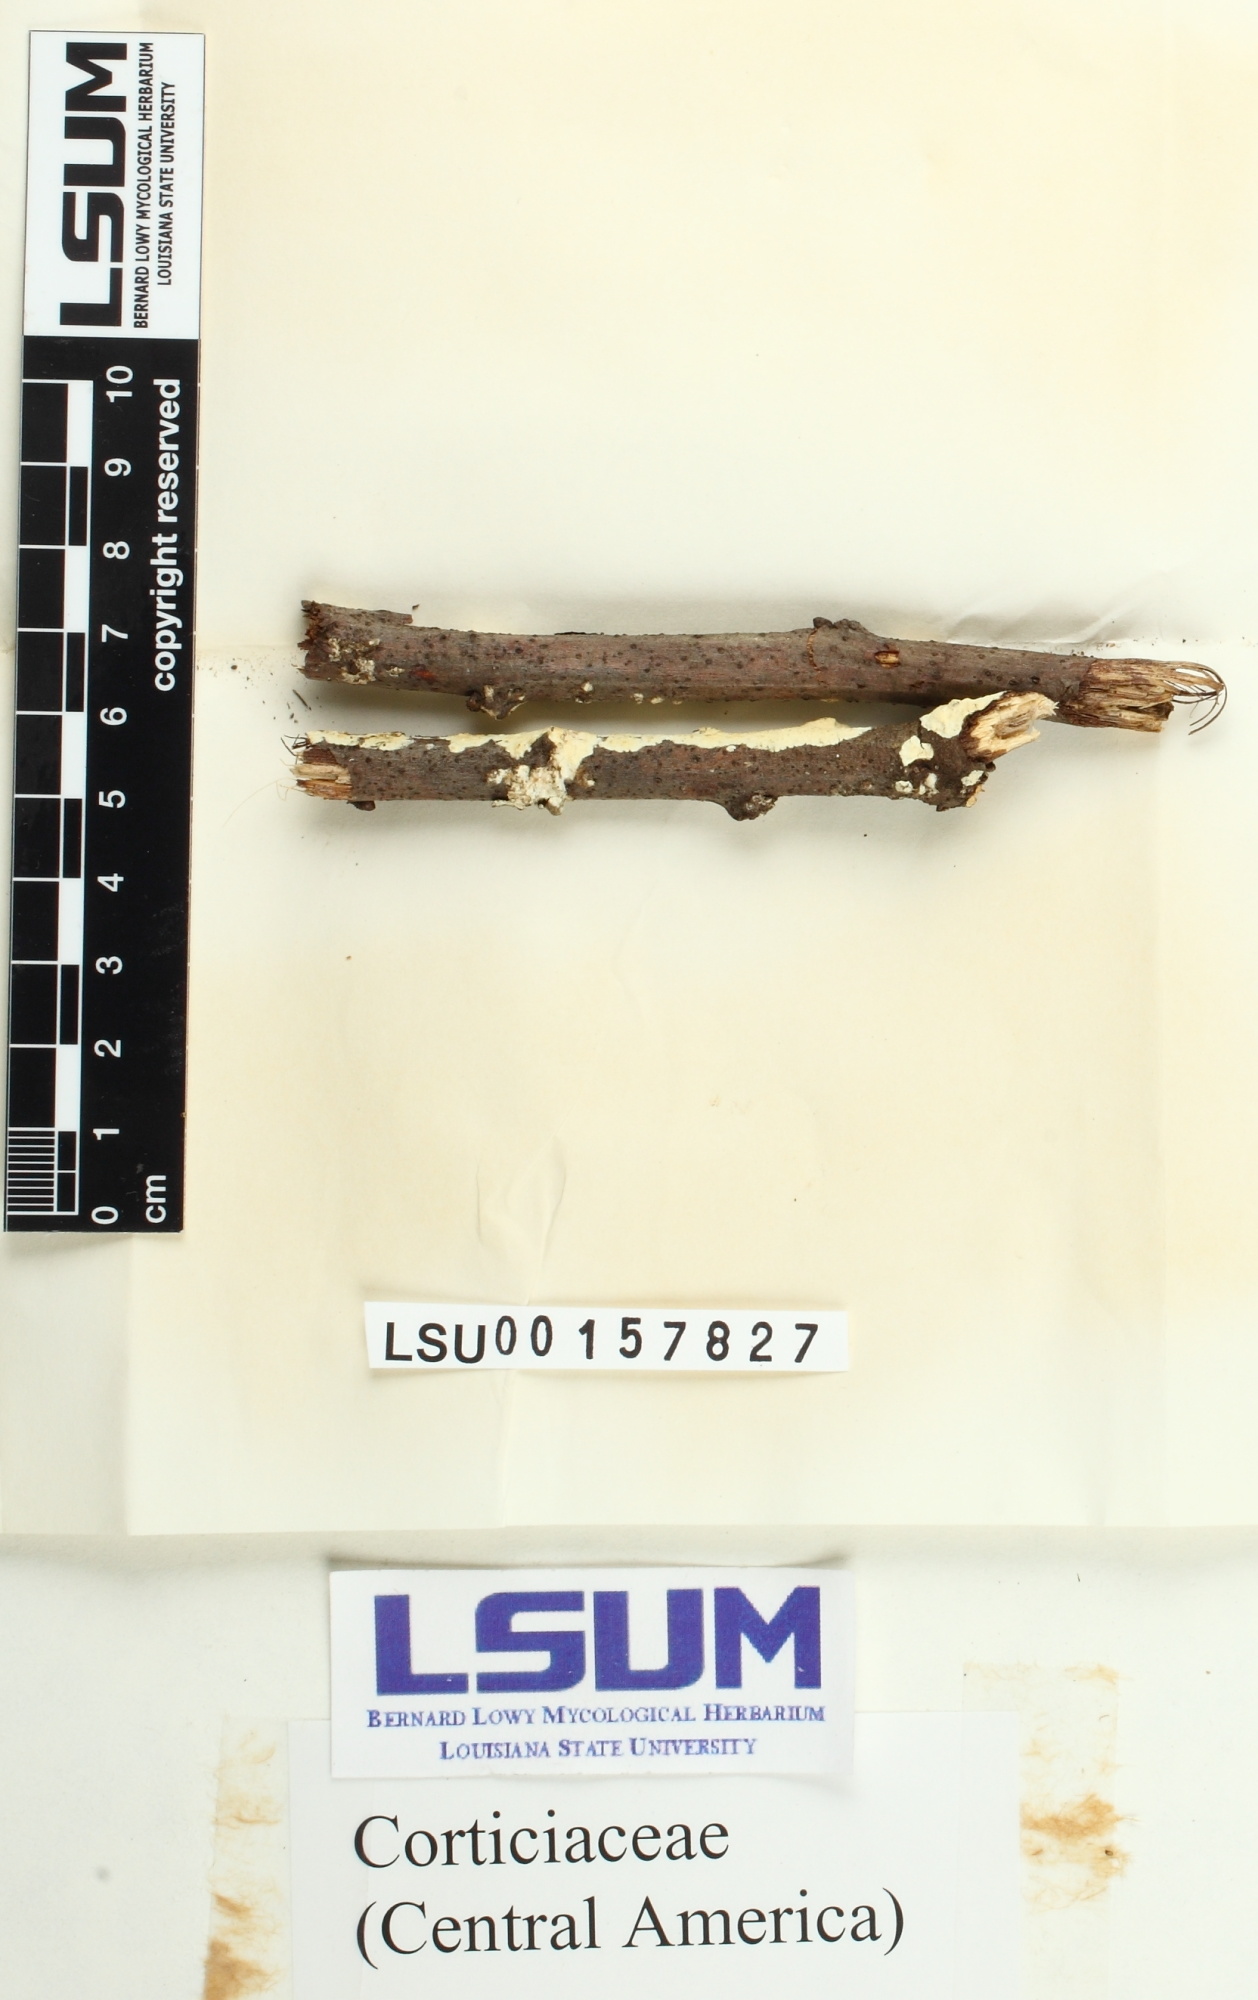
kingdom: Fungi
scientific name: Fungi
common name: Fungi
